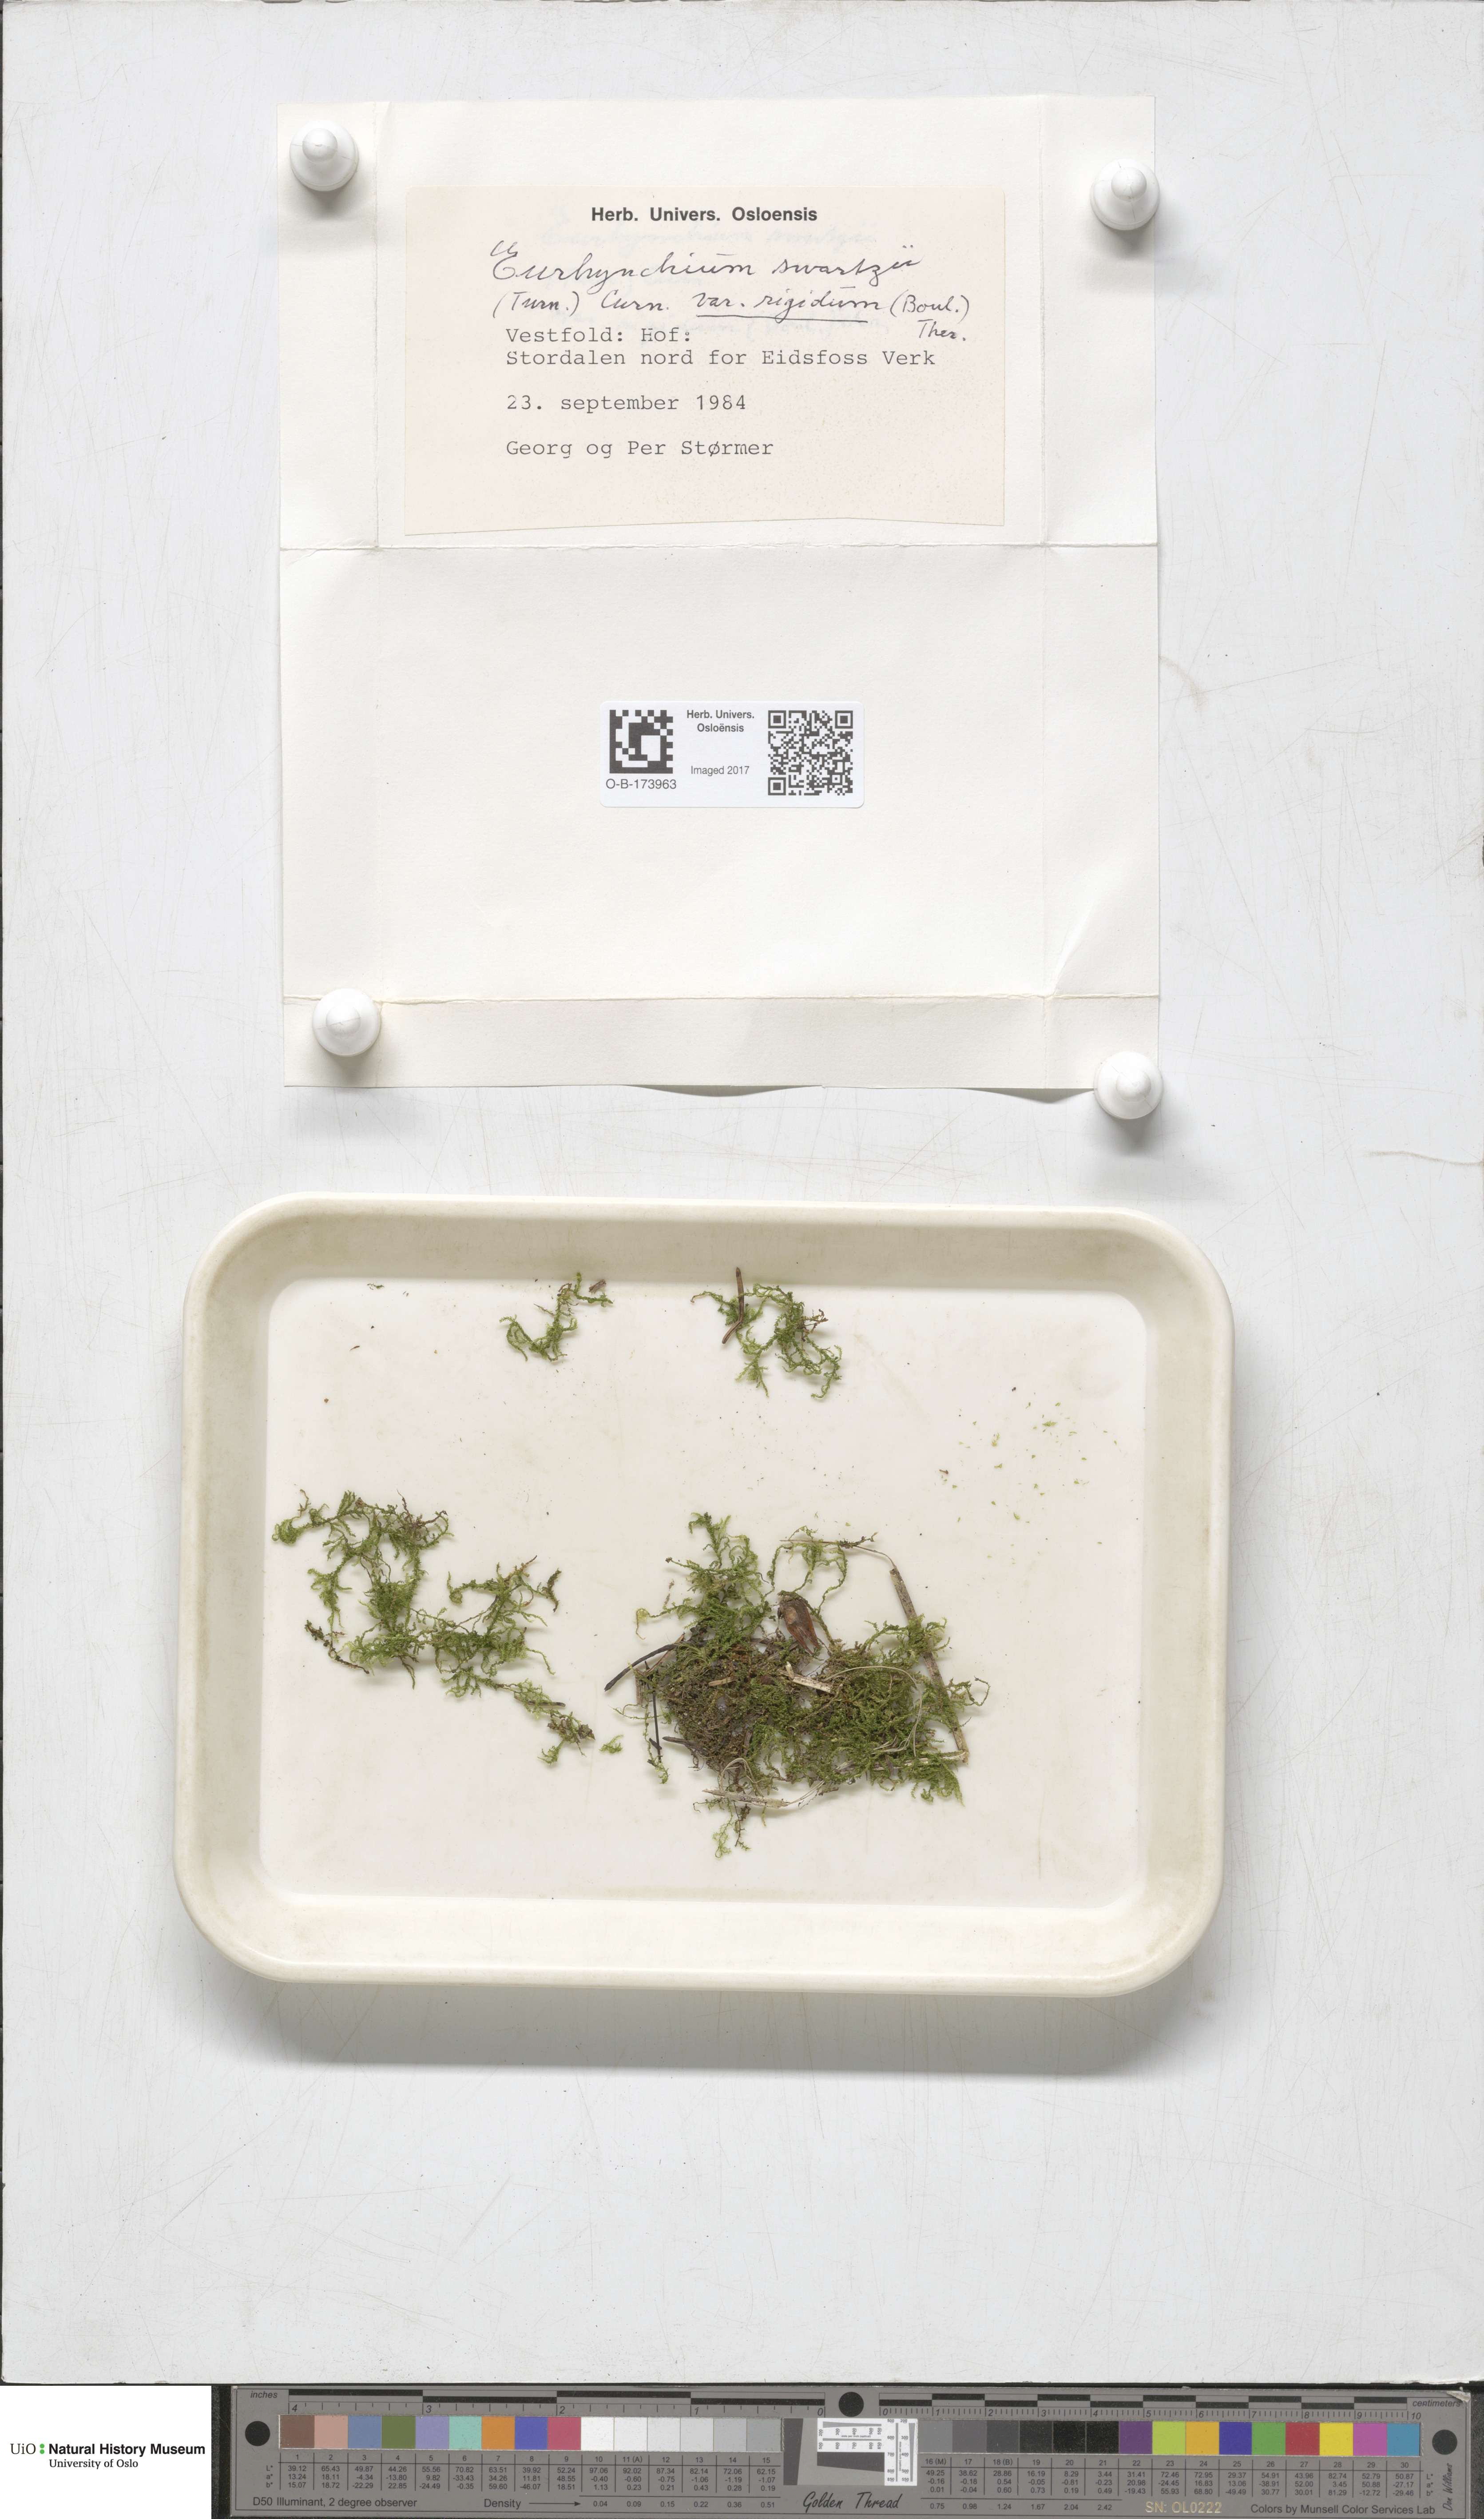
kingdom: Plantae
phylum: Bryophyta
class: Bryopsida
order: Hypnales
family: Brachytheciaceae
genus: Kindbergia
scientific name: Kindbergia praelonga
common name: Slender beaked moss
